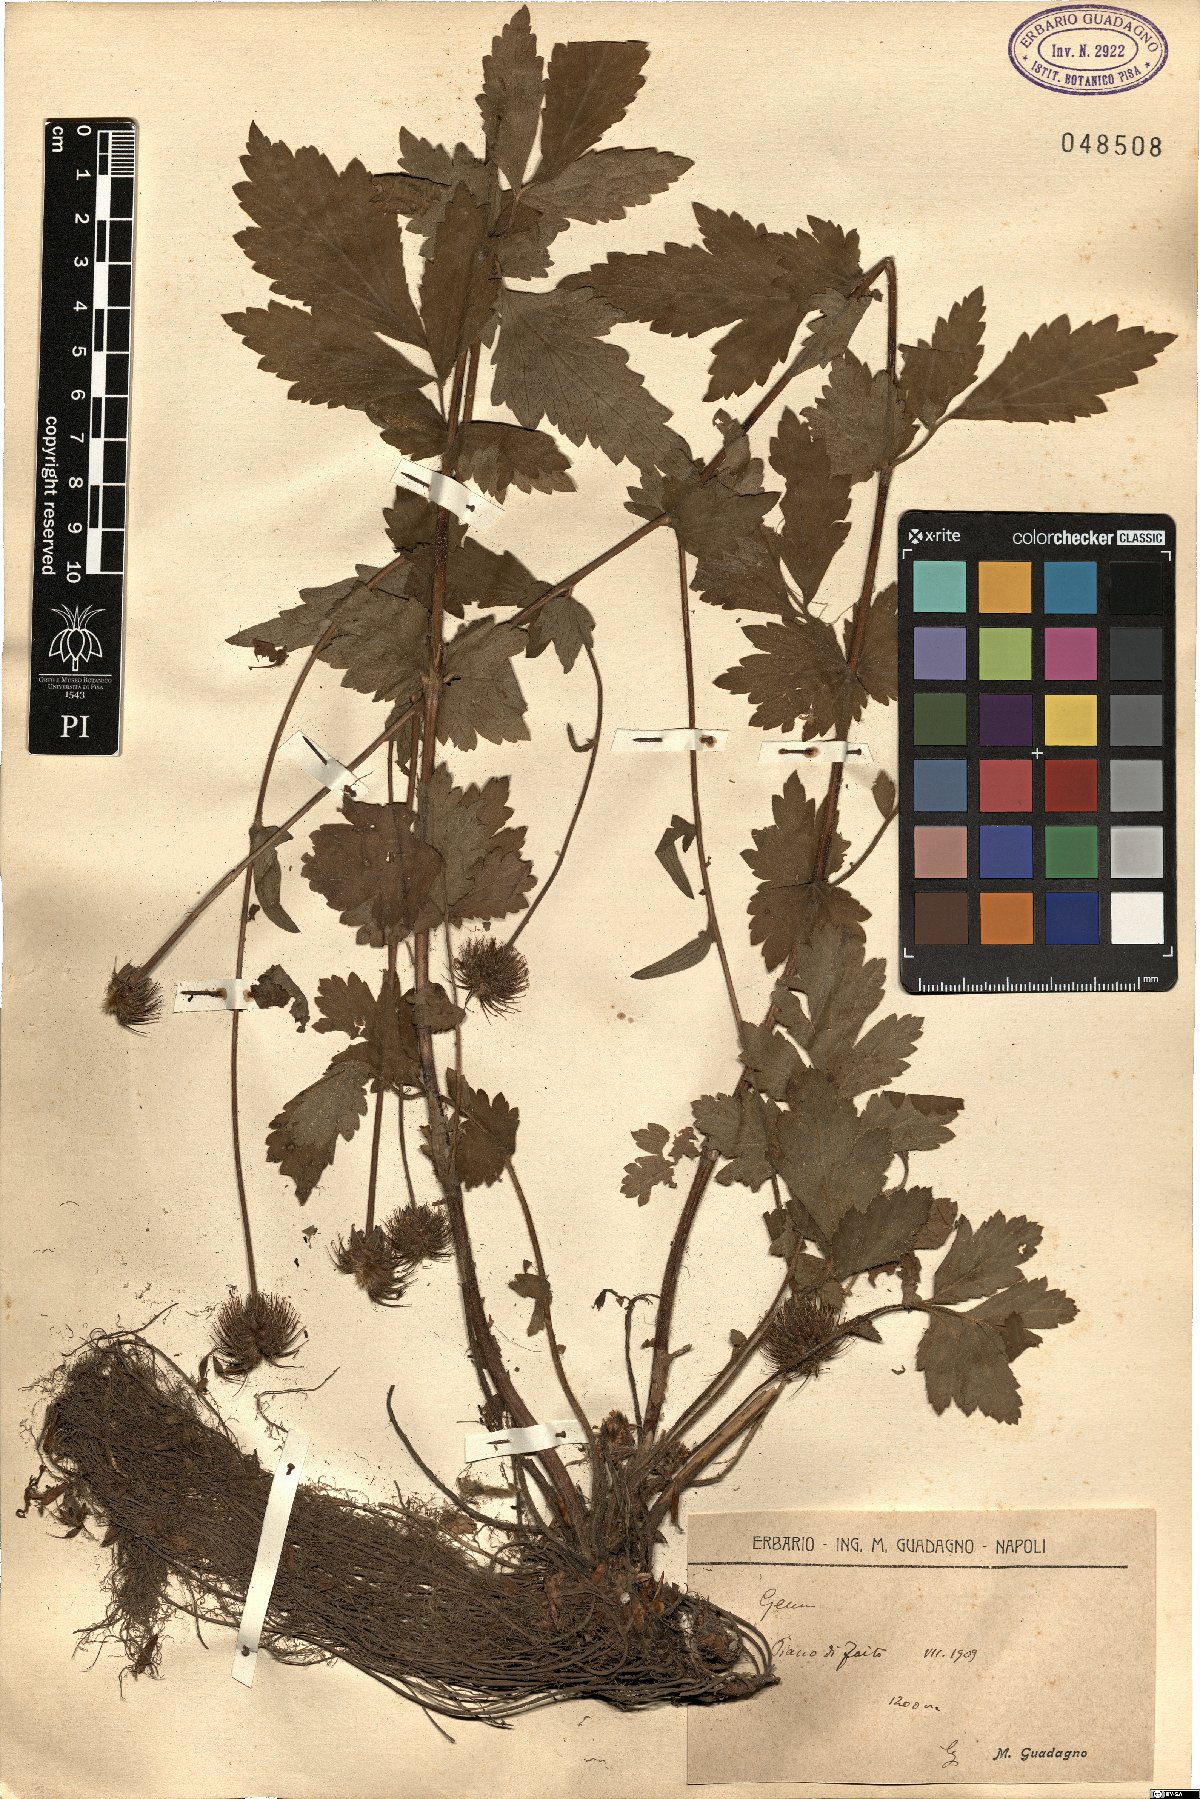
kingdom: Plantae
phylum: Tracheophyta
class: Magnoliopsida
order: Rosales
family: Rosaceae
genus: Geum
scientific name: Geum
